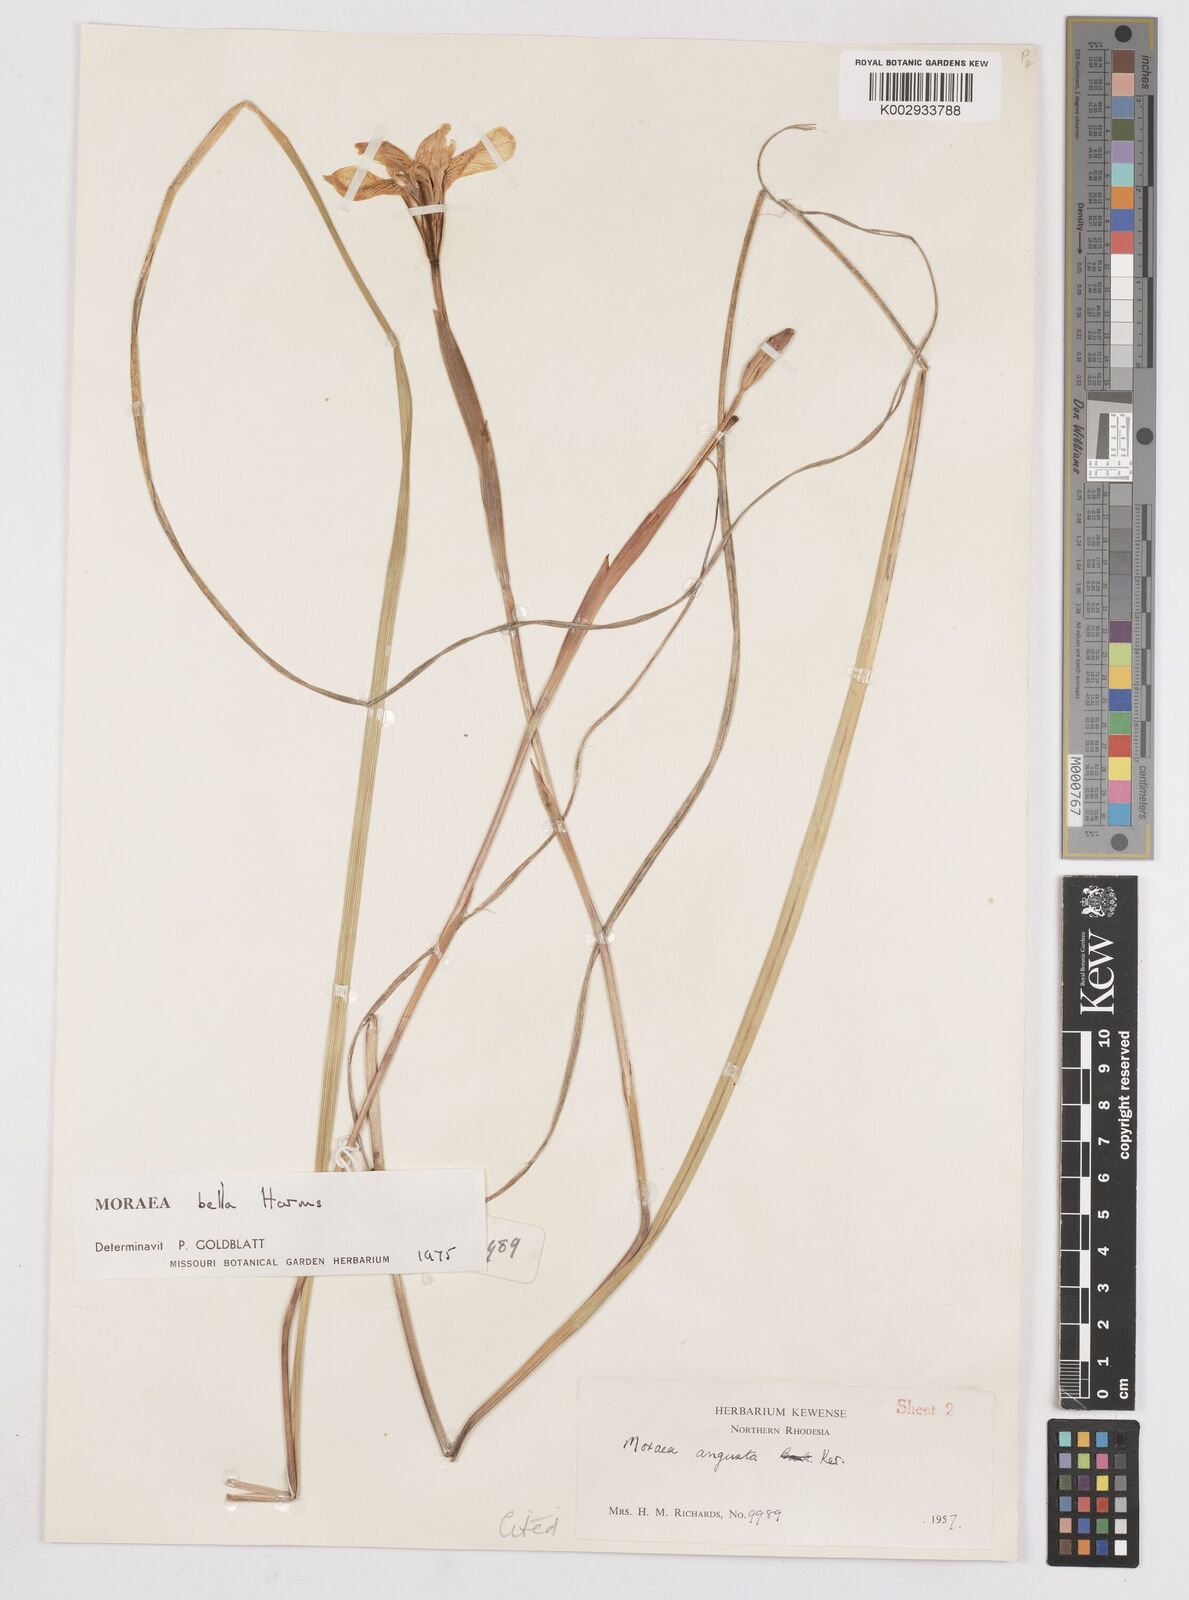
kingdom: Plantae
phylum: Tracheophyta
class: Liliopsida
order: Asparagales
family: Iridaceae
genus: Moraea
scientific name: Moraea bella
